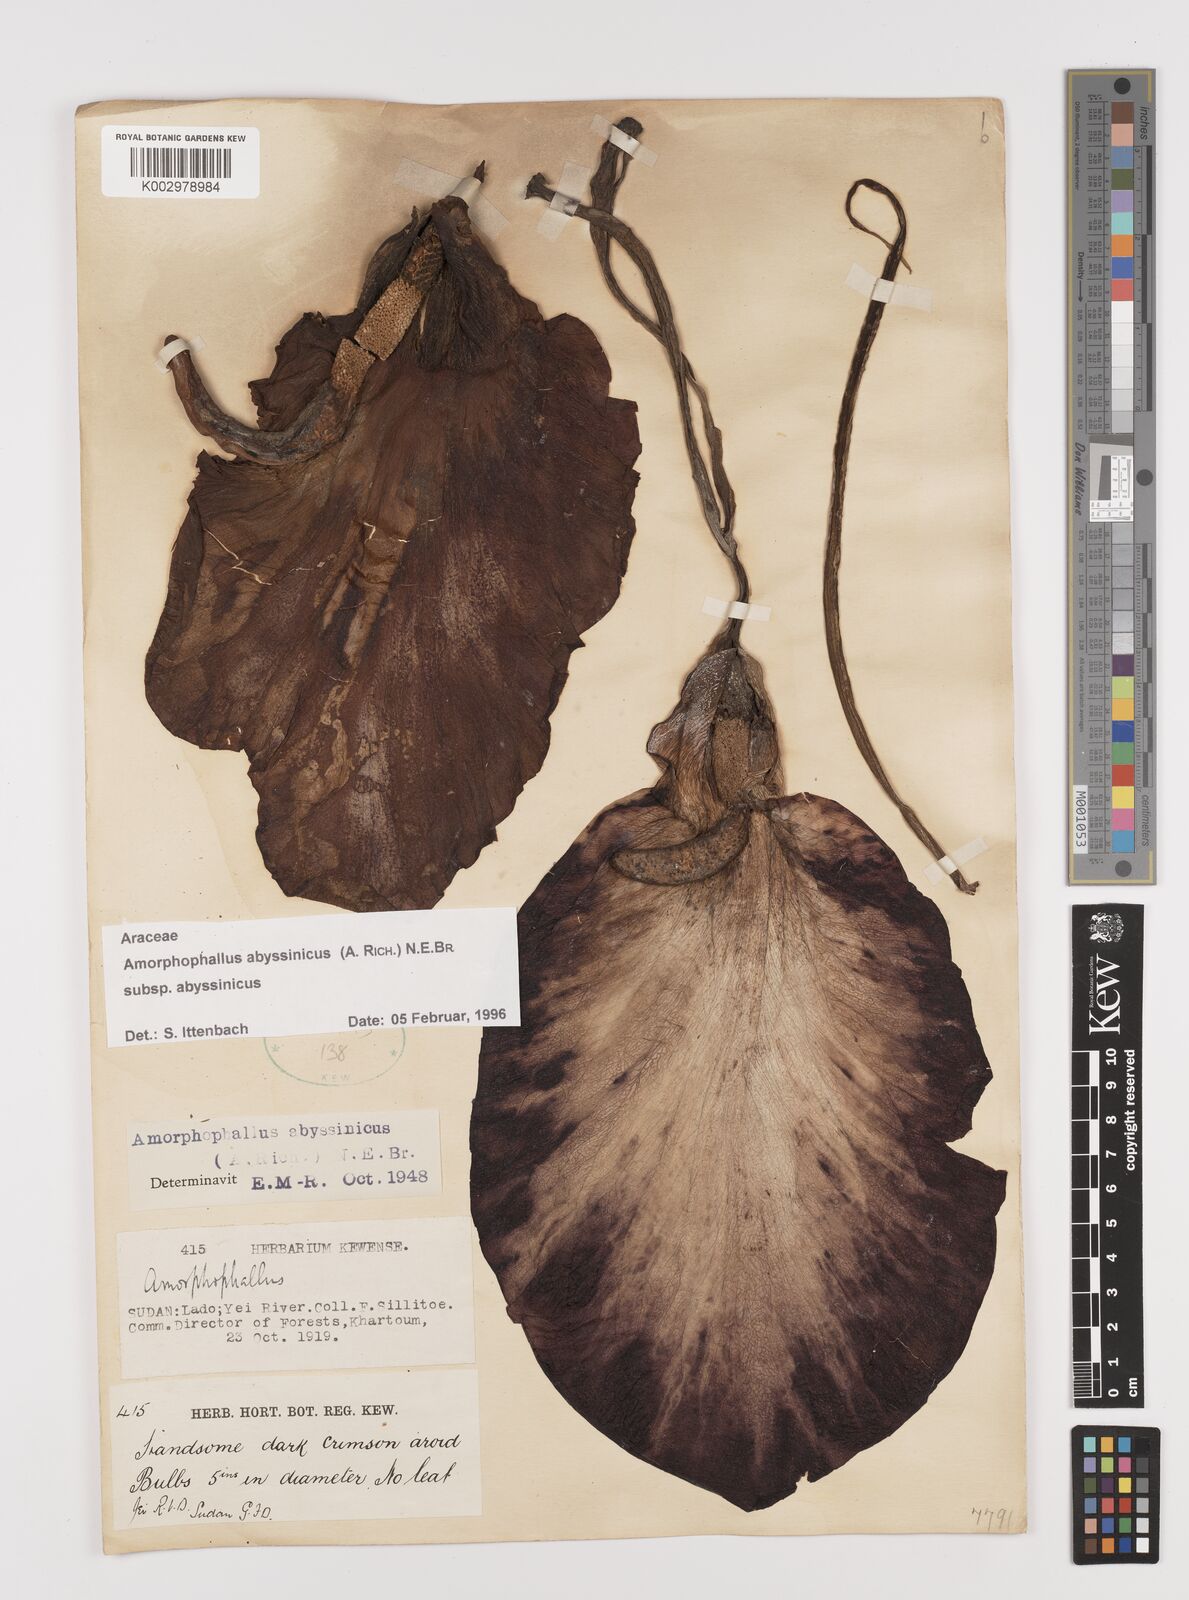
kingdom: Plantae
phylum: Tracheophyta
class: Liliopsida
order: Alismatales
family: Araceae
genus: Amorphophallus
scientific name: Amorphophallus abyssinicus
